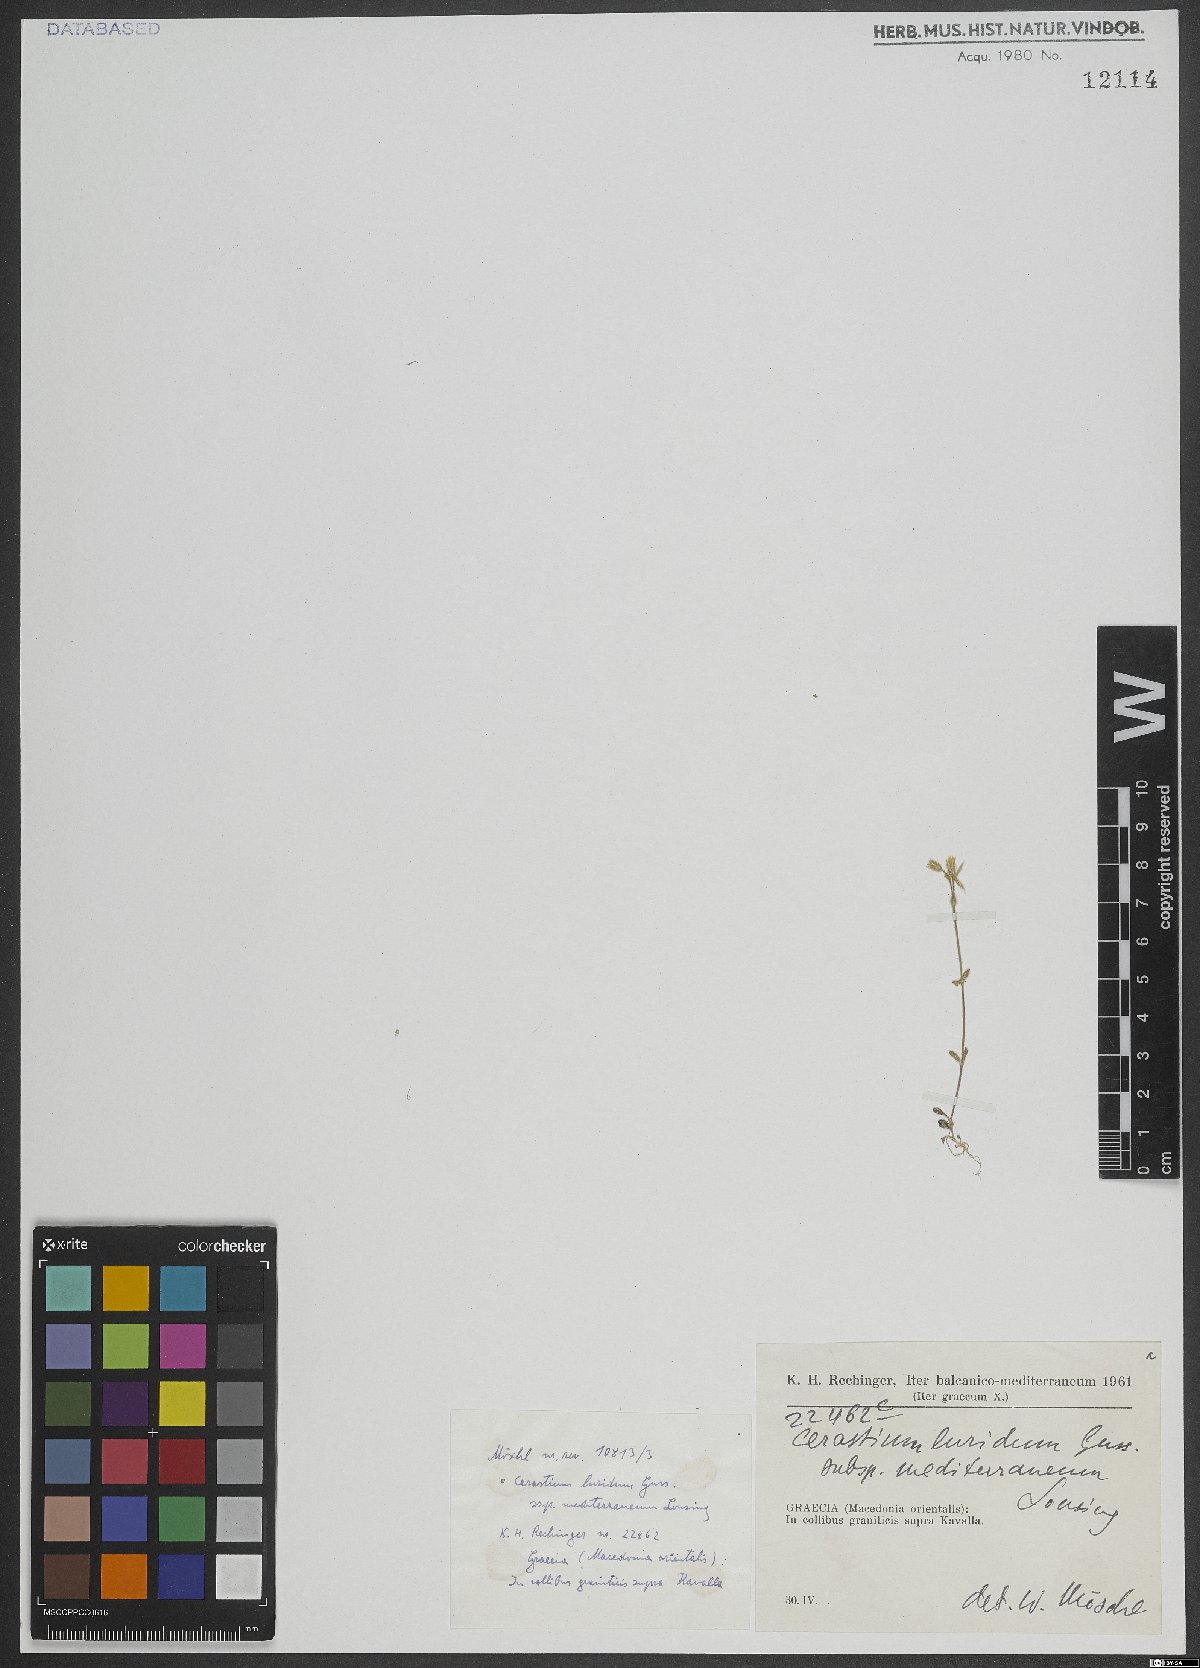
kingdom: Plantae
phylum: Tracheophyta
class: Magnoliopsida
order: Caryophyllales
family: Caryophyllaceae
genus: Cerastium
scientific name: Cerastium brachypetalum
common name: Grey mouse-ear
